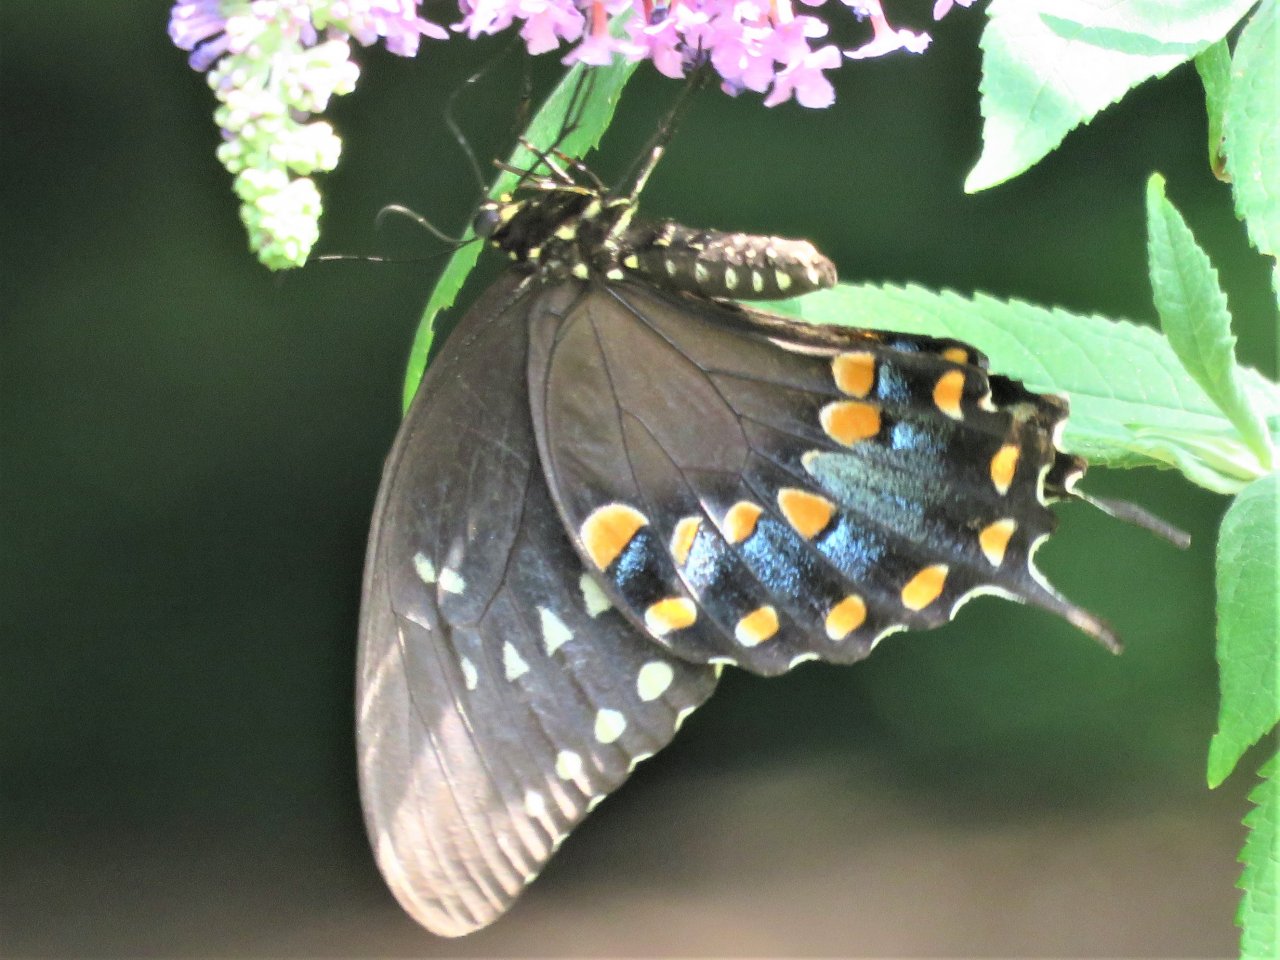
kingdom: Animalia
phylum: Arthropoda
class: Insecta
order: Lepidoptera
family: Papilionidae
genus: Pterourus
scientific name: Pterourus troilus
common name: Spicebush Swallowtail
